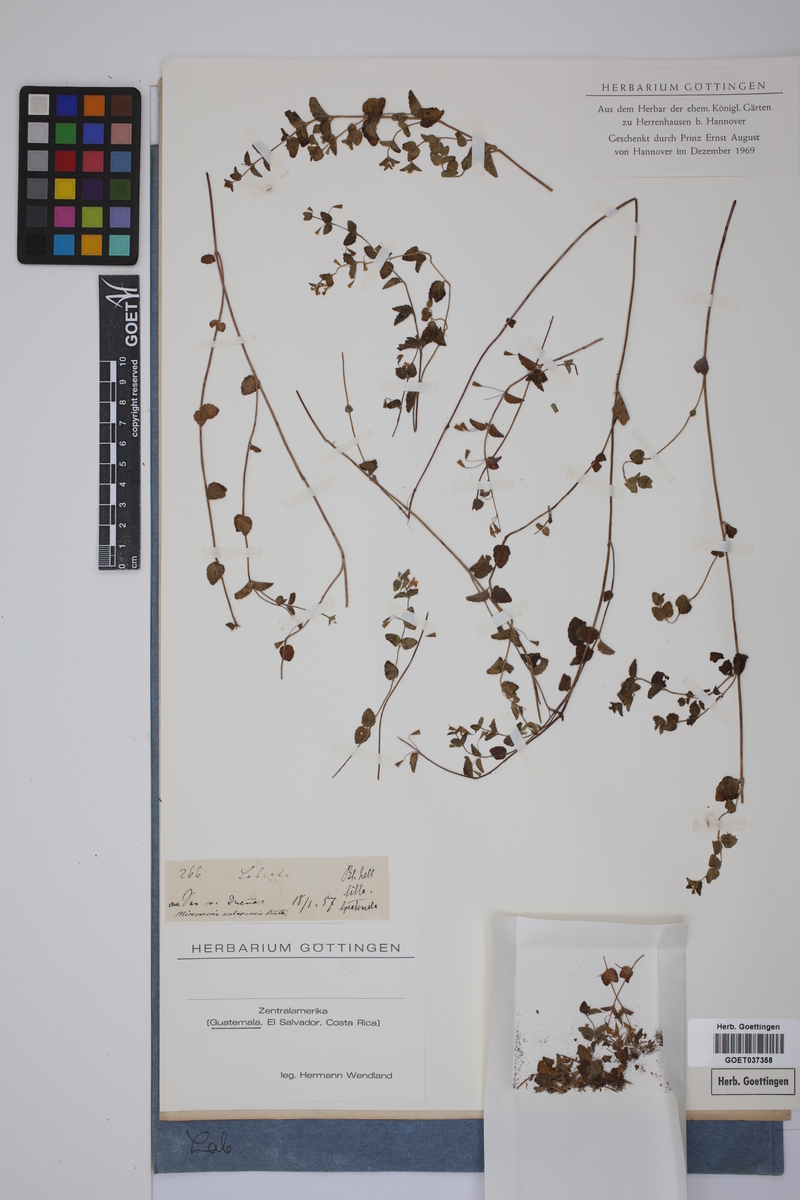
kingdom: Plantae
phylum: Tracheophyta
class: Magnoliopsida
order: Lamiales
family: Lamiaceae
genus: Clinopodium
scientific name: Clinopodium brownei
